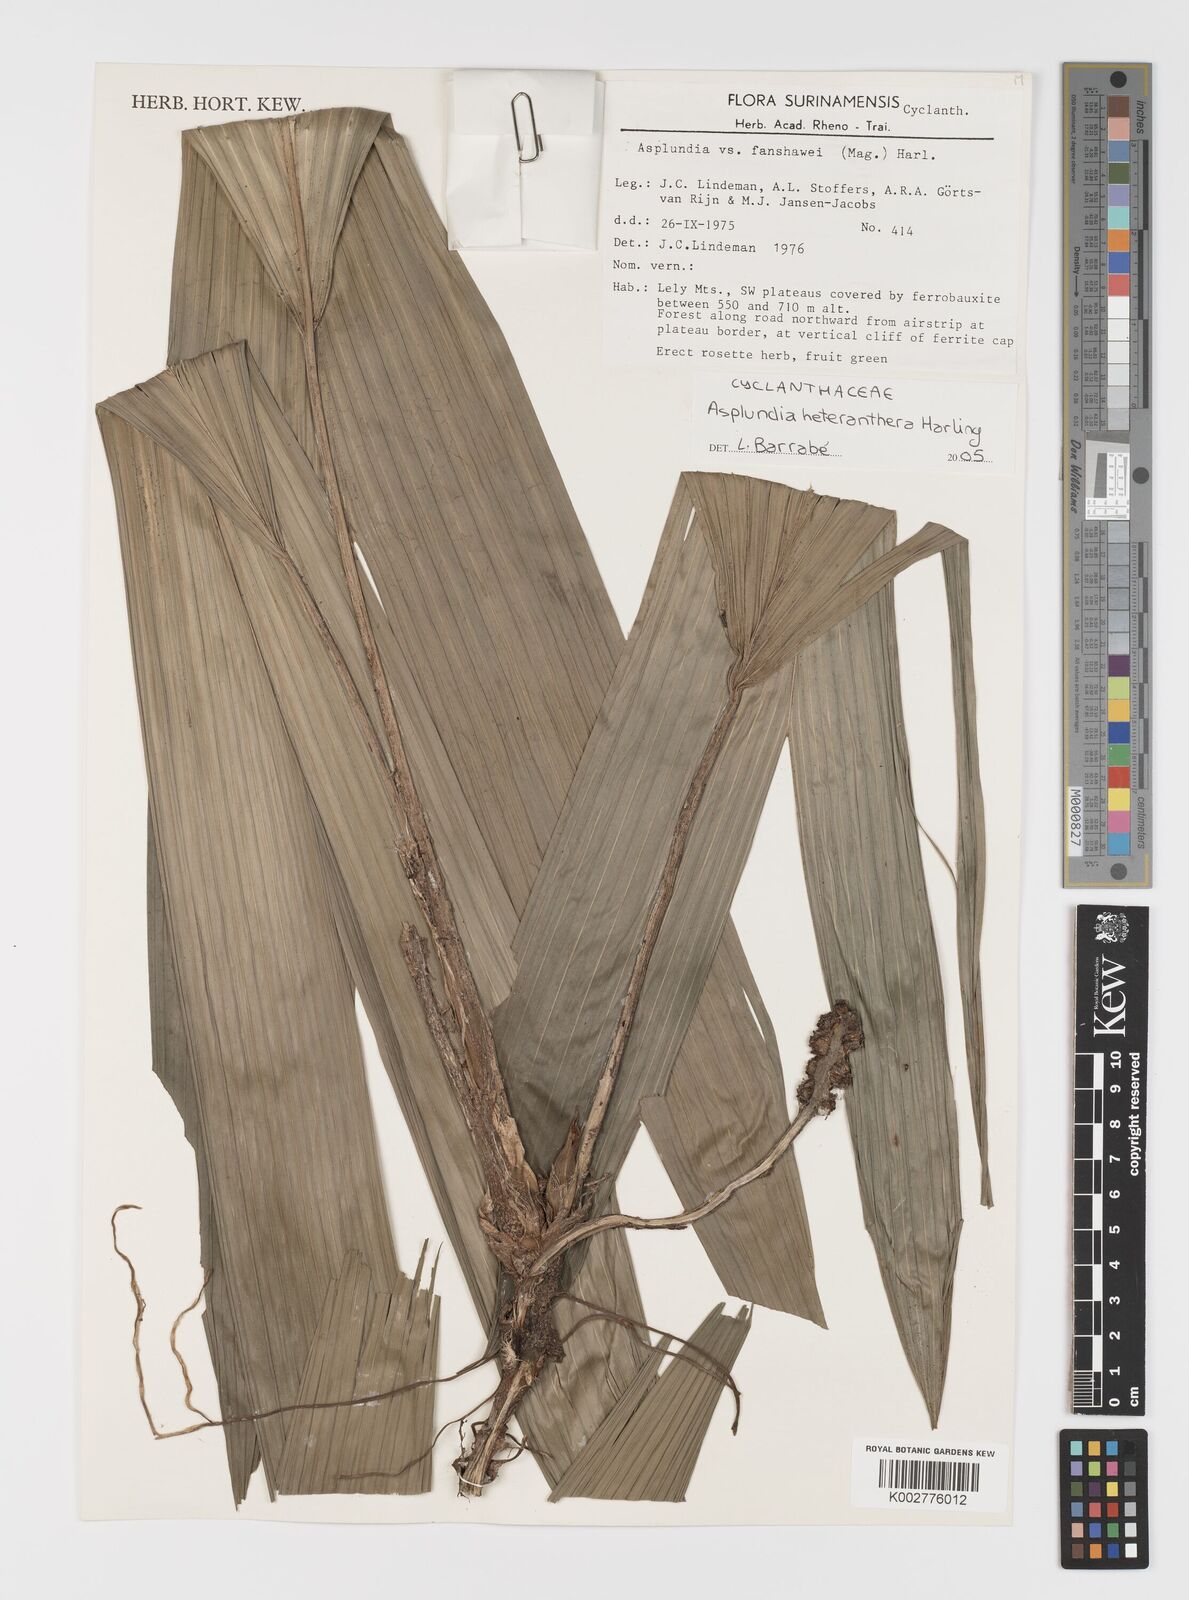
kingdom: Plantae
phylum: Tracheophyta
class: Liliopsida
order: Pandanales
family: Cyclanthaceae
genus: Asplundia
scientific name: Asplundia heteranthera
